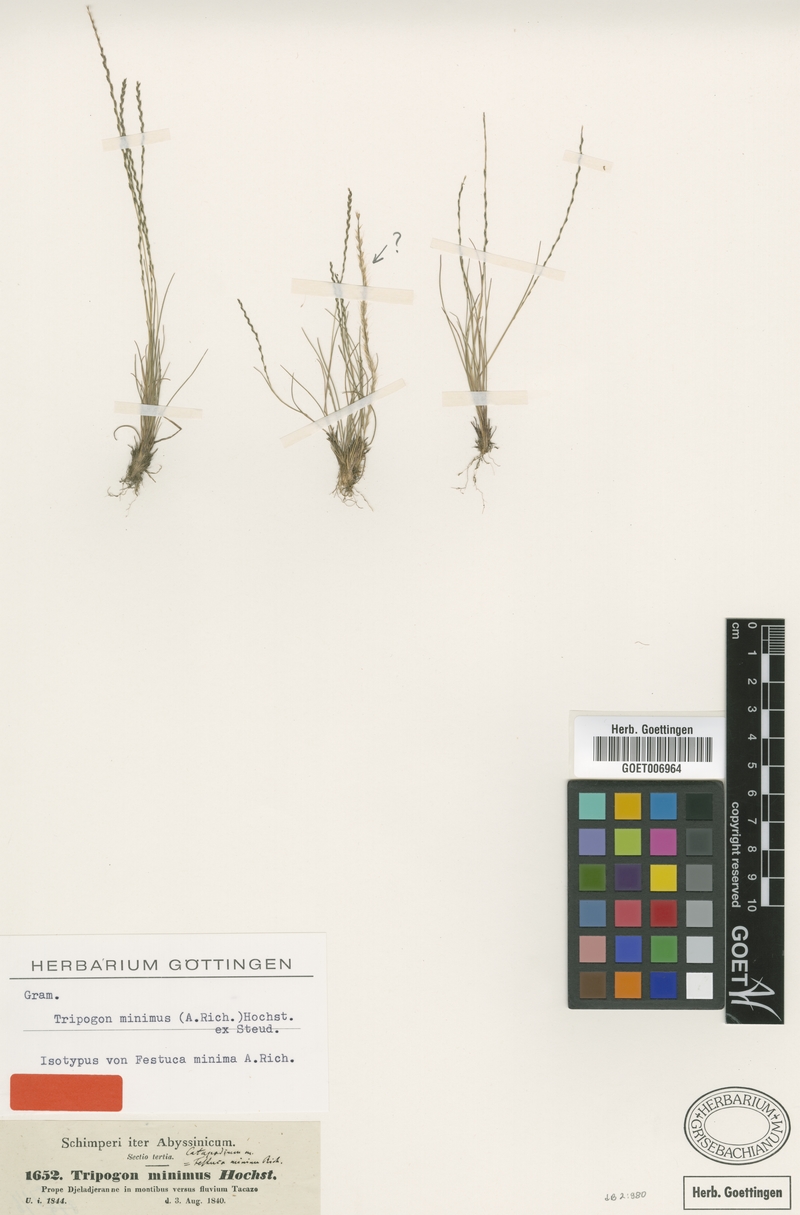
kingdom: Plantae
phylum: Tracheophyta
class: Liliopsida
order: Poales
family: Poaceae
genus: Tripogonella
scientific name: Tripogonella minima
